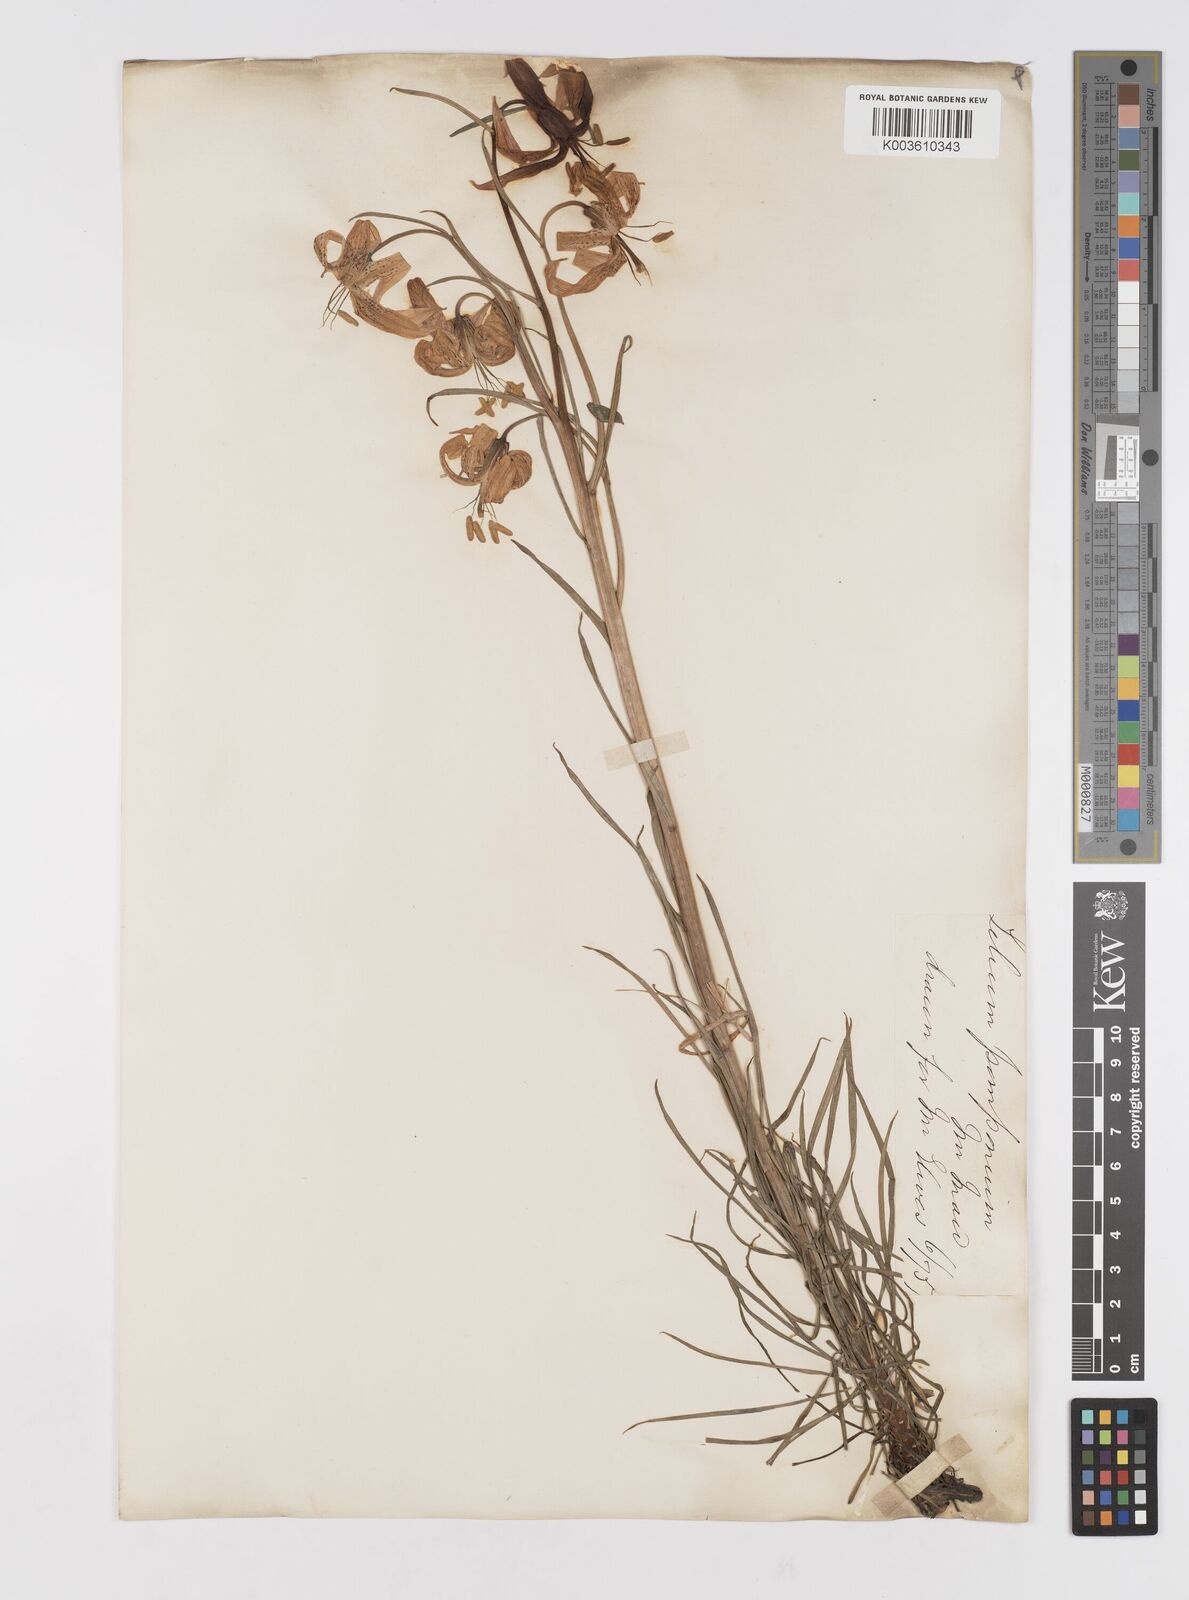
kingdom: Plantae
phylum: Tracheophyta
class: Liliopsida
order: Liliales
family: Liliaceae
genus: Lilium
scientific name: Lilium
